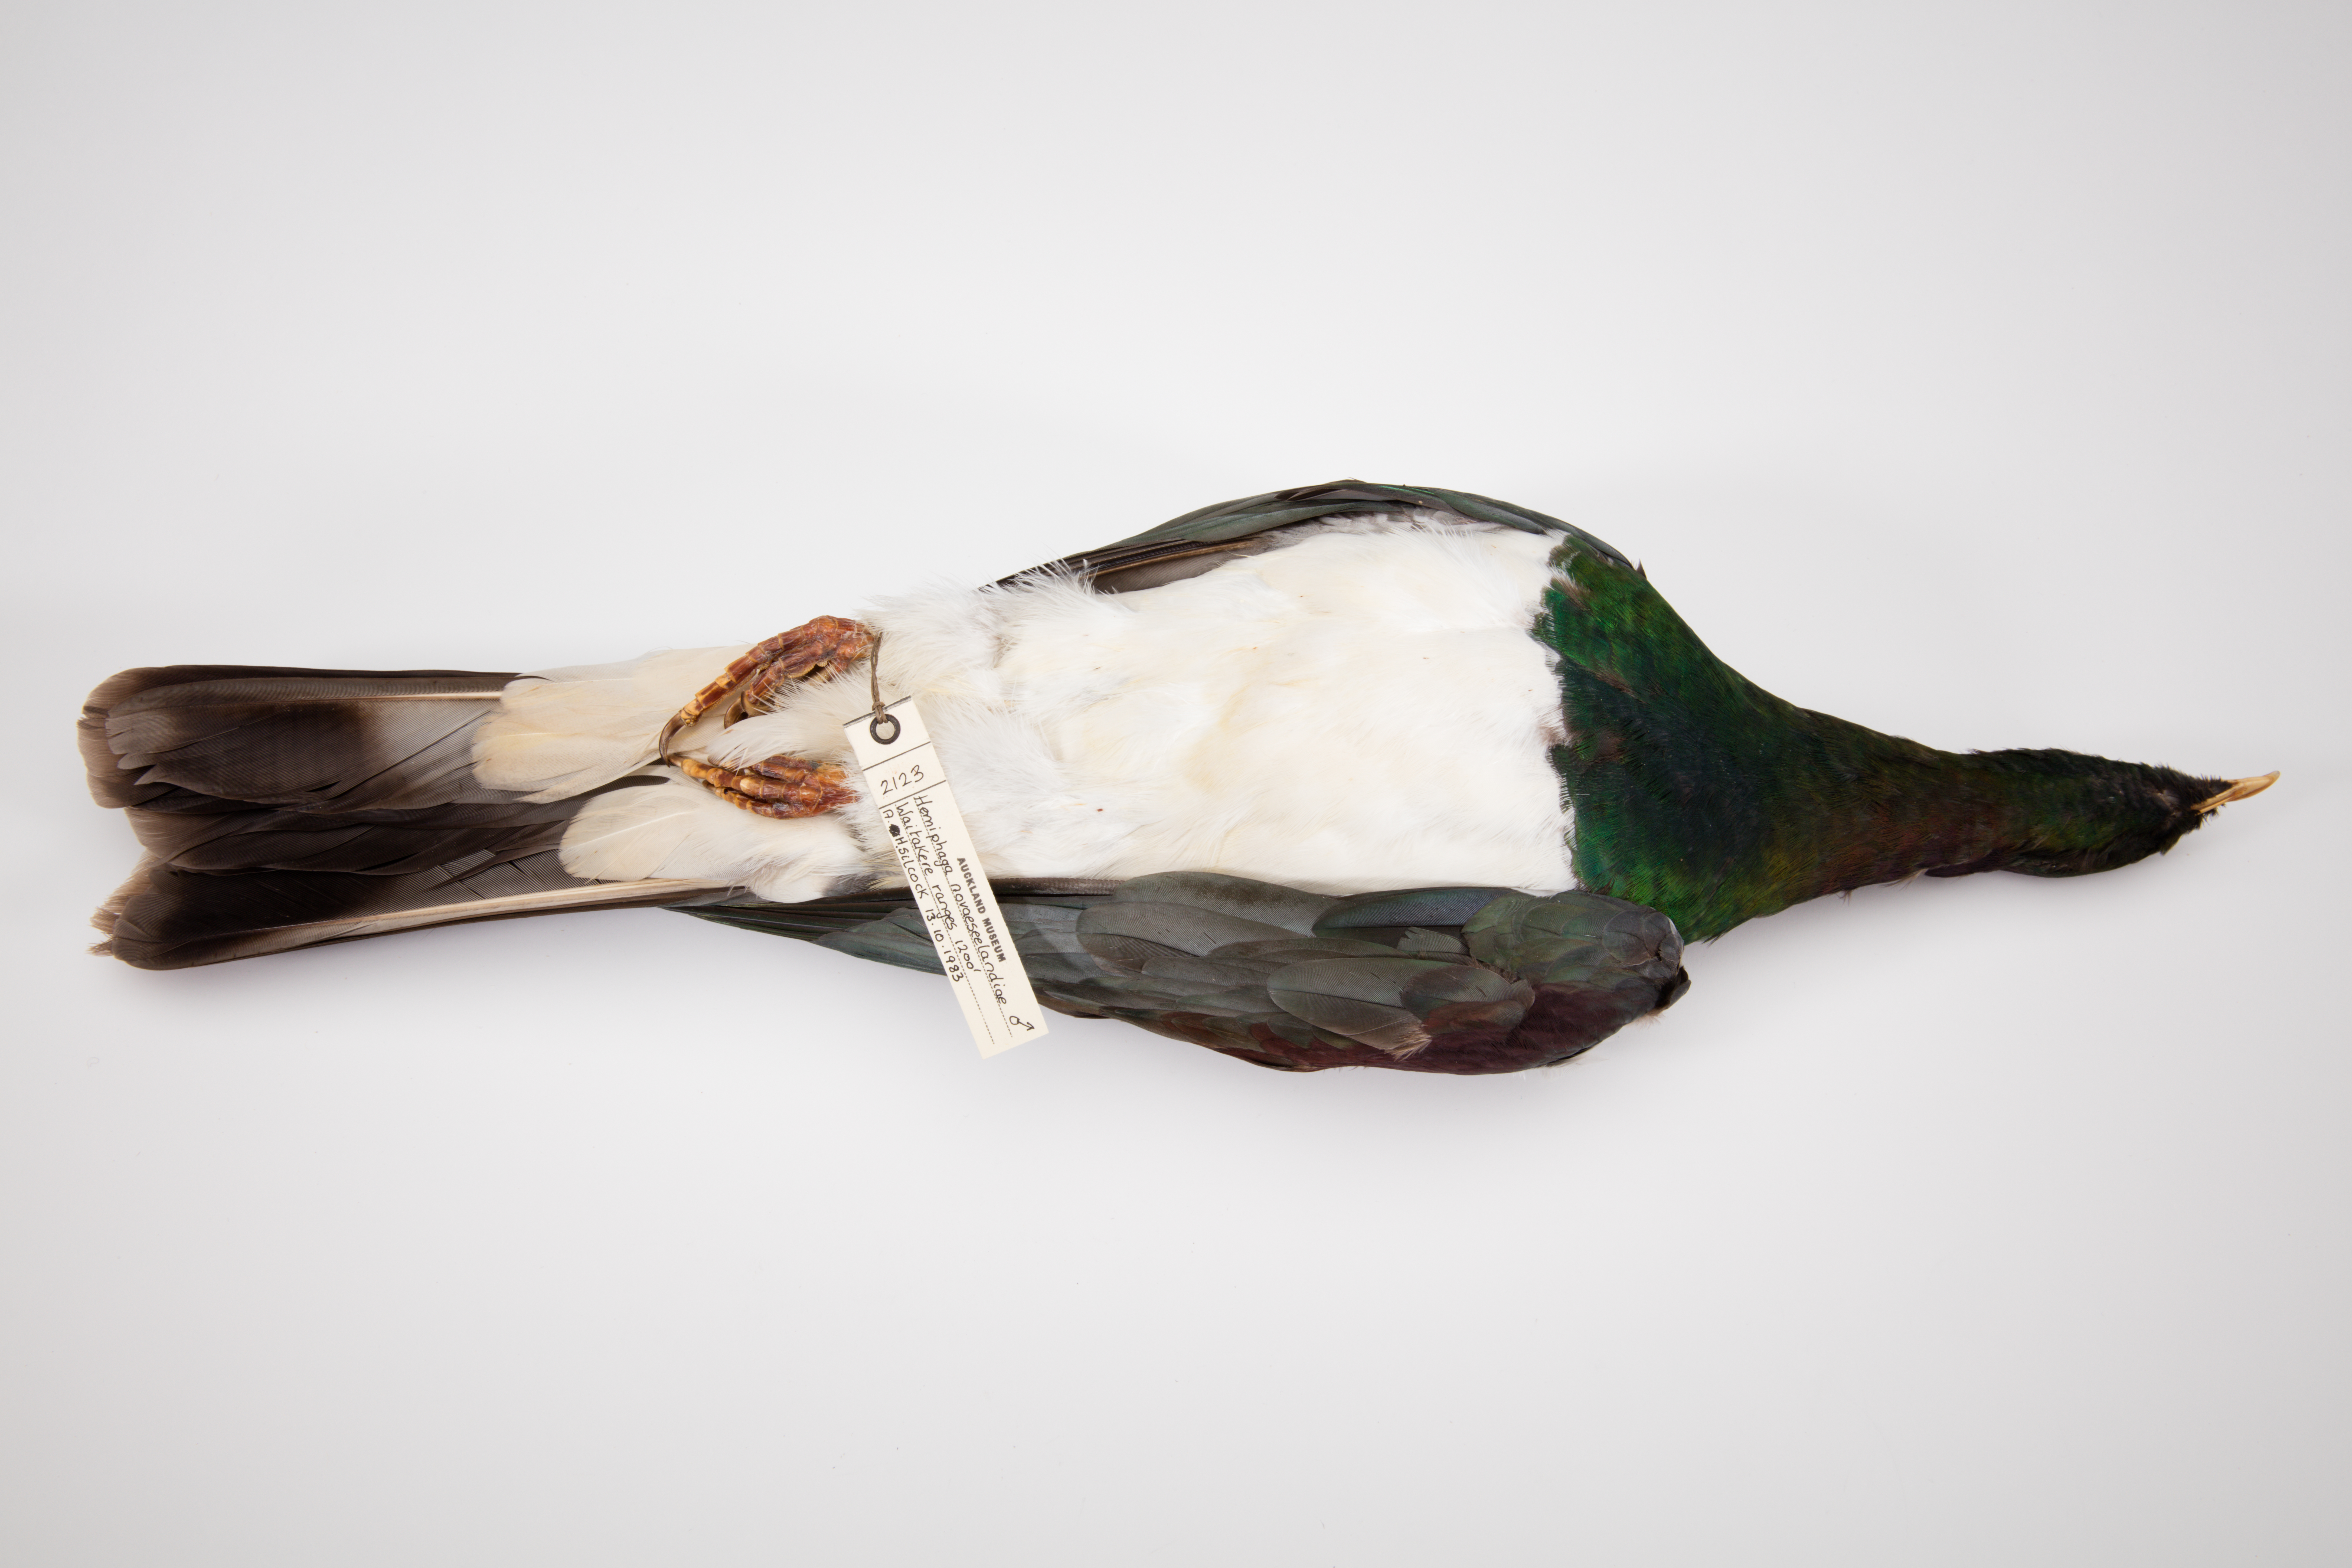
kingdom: Animalia
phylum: Chordata
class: Aves
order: Columbiformes
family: Columbidae
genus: Hemiphaga
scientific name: Hemiphaga novaeseelandiae
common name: New zealand pigeon
